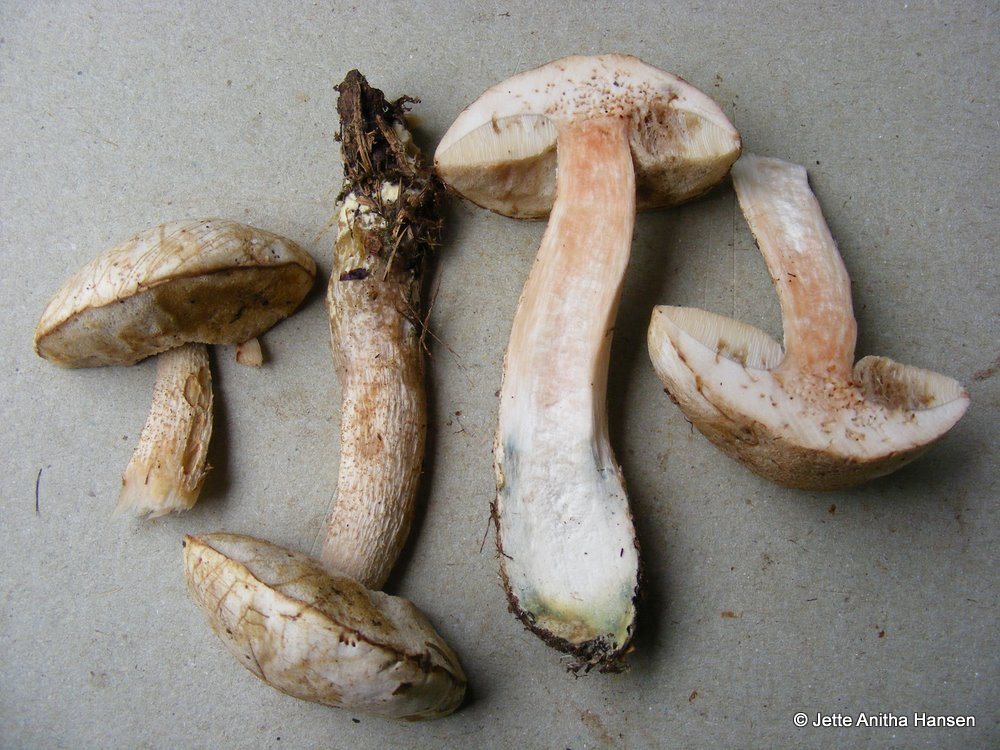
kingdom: Fungi
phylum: Basidiomycota
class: Agaricomycetes
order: Boletales
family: Boletaceae
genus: Leccinum
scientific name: Leccinum scabrum
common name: hvid skælrørhat
